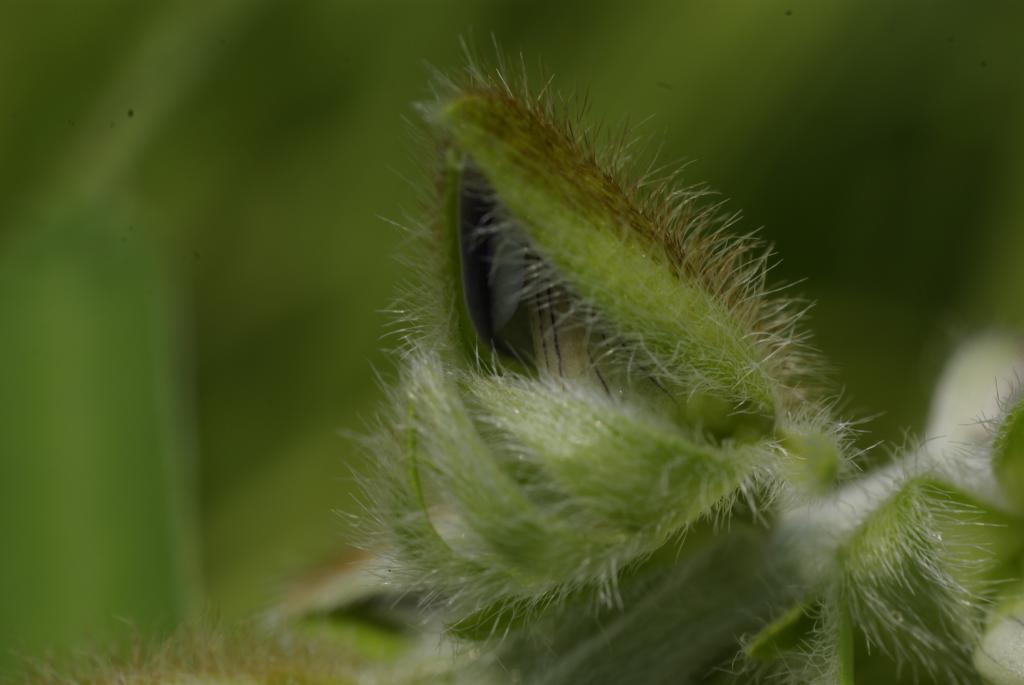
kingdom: Plantae
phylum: Tracheophyta
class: Magnoliopsida
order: Fabales
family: Fabaceae
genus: Crotalaria
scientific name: Crotalaria sessiliflora
